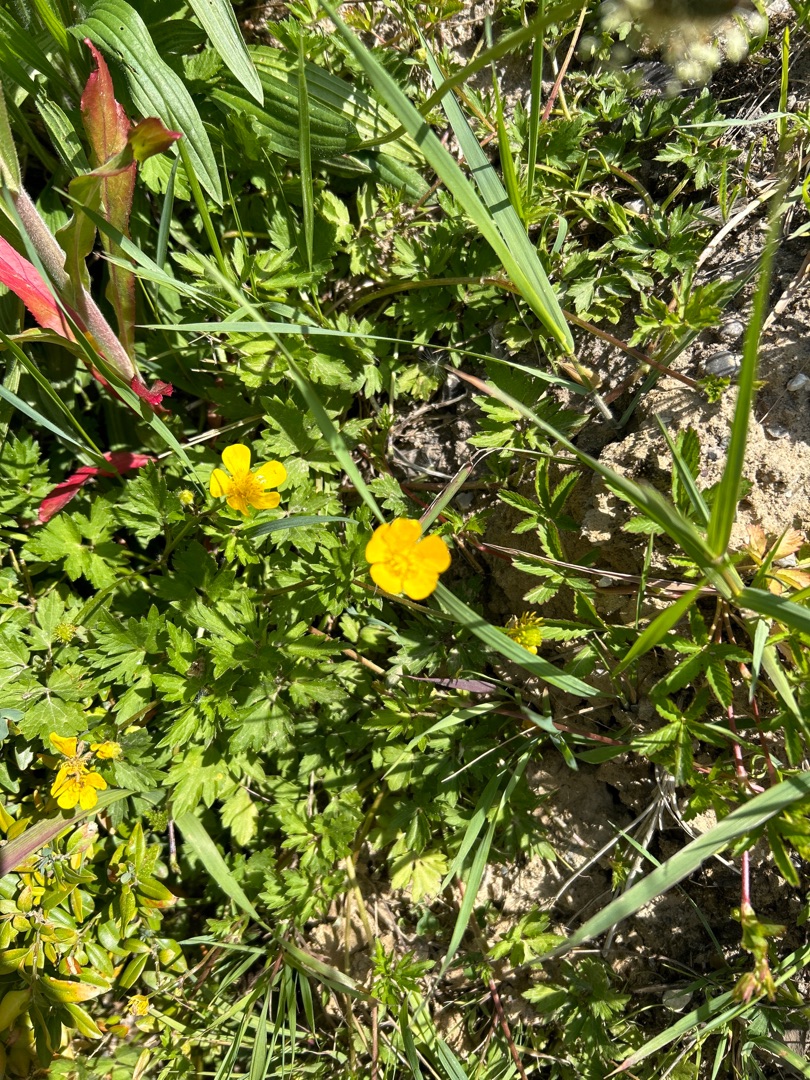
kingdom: Plantae
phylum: Tracheophyta
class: Magnoliopsida
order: Ranunculales
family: Ranunculaceae
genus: Ranunculus
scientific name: Ranunculus repens
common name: Lav ranunkel
